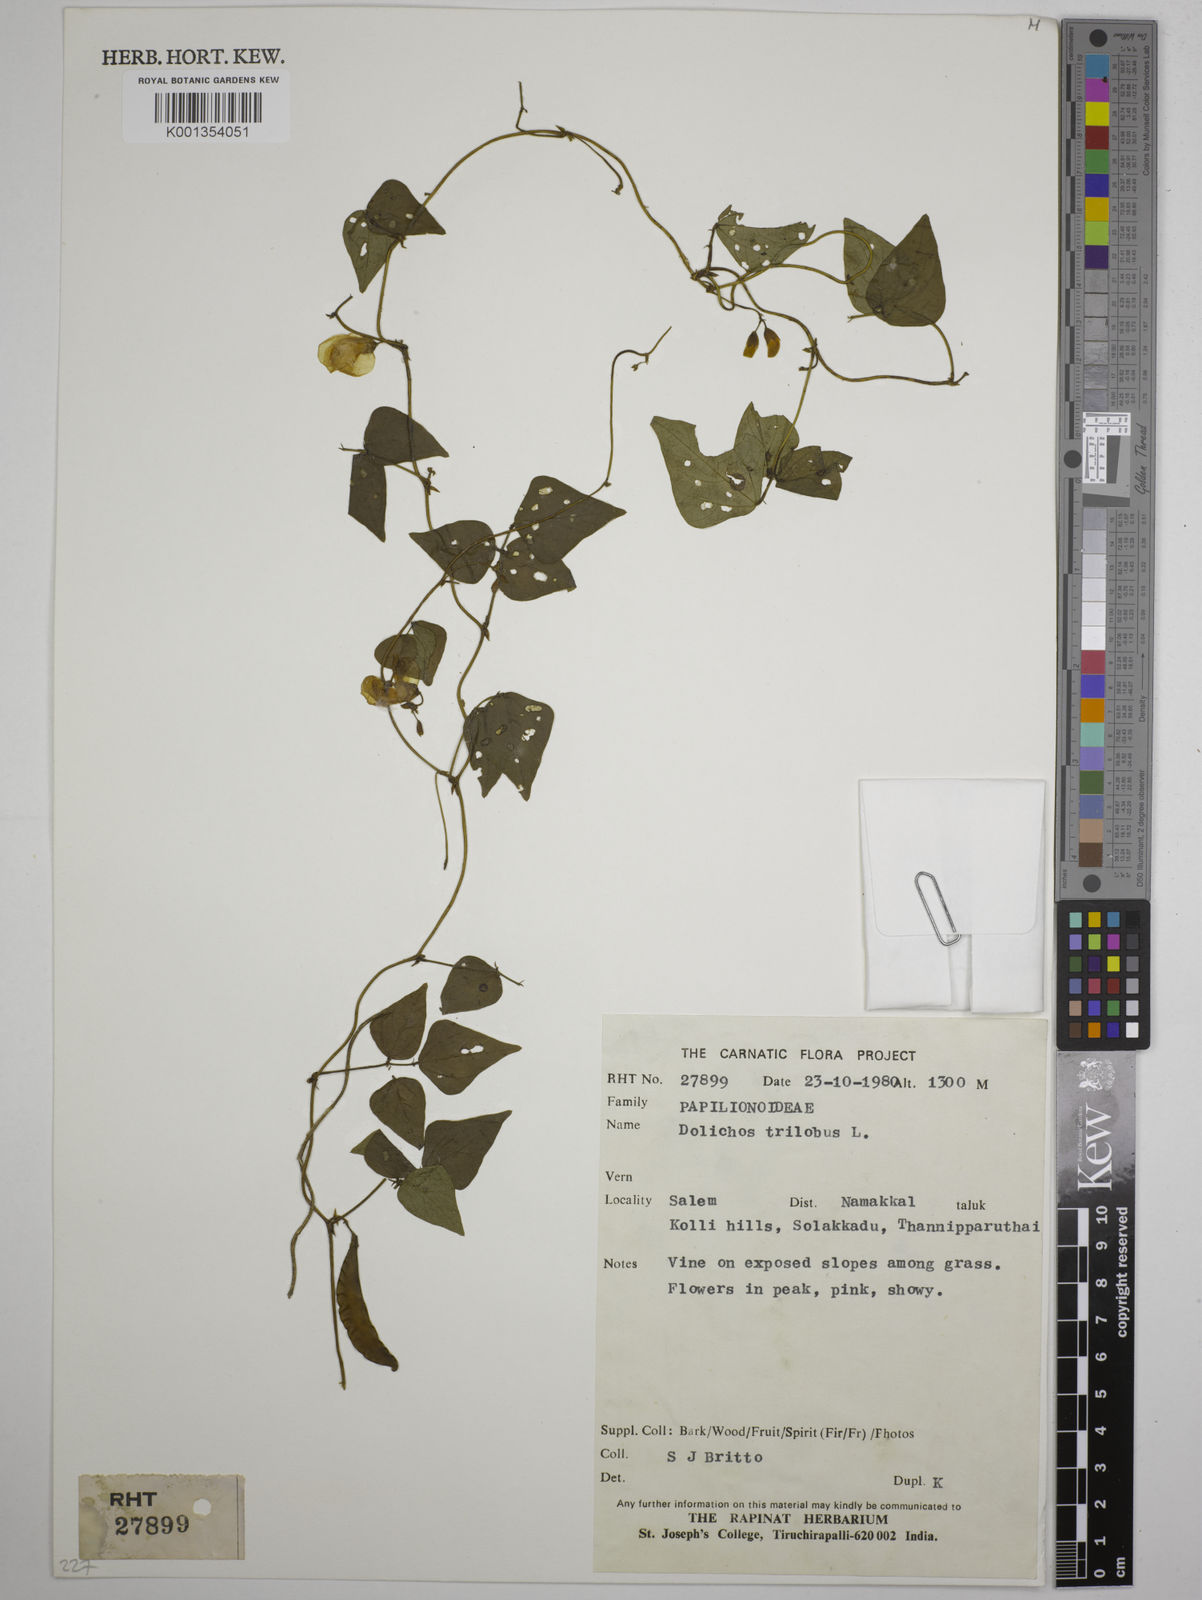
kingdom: Plantae
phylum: Tracheophyta
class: Magnoliopsida
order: Fabales
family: Fabaceae
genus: Dolichos
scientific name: Dolichos
